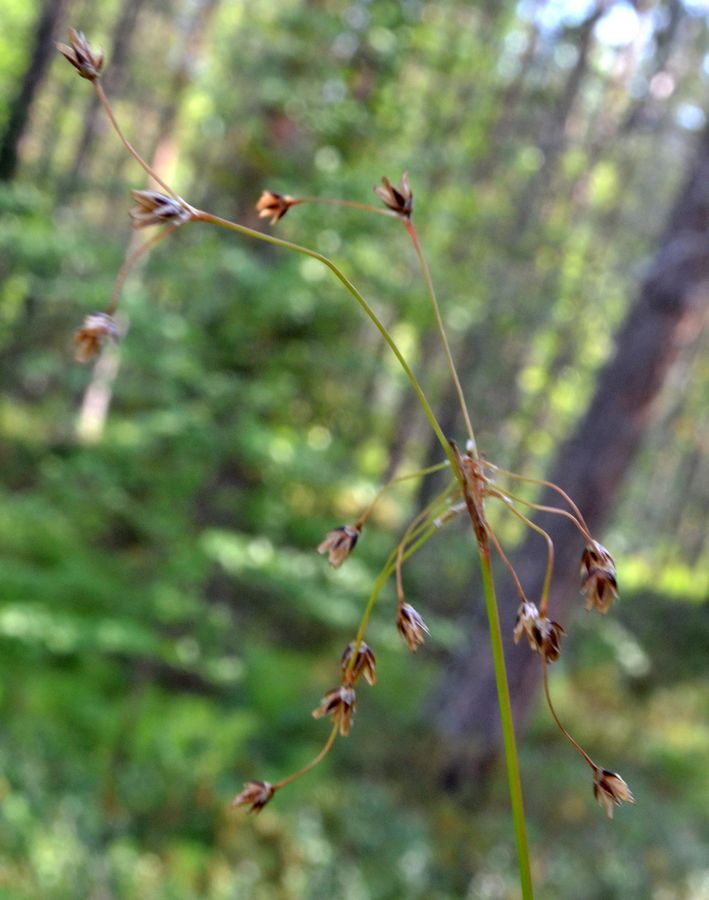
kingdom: Plantae
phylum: Tracheophyta
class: Liliopsida
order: Poales
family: Juncaceae
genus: Luzula
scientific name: Luzula pilosa
